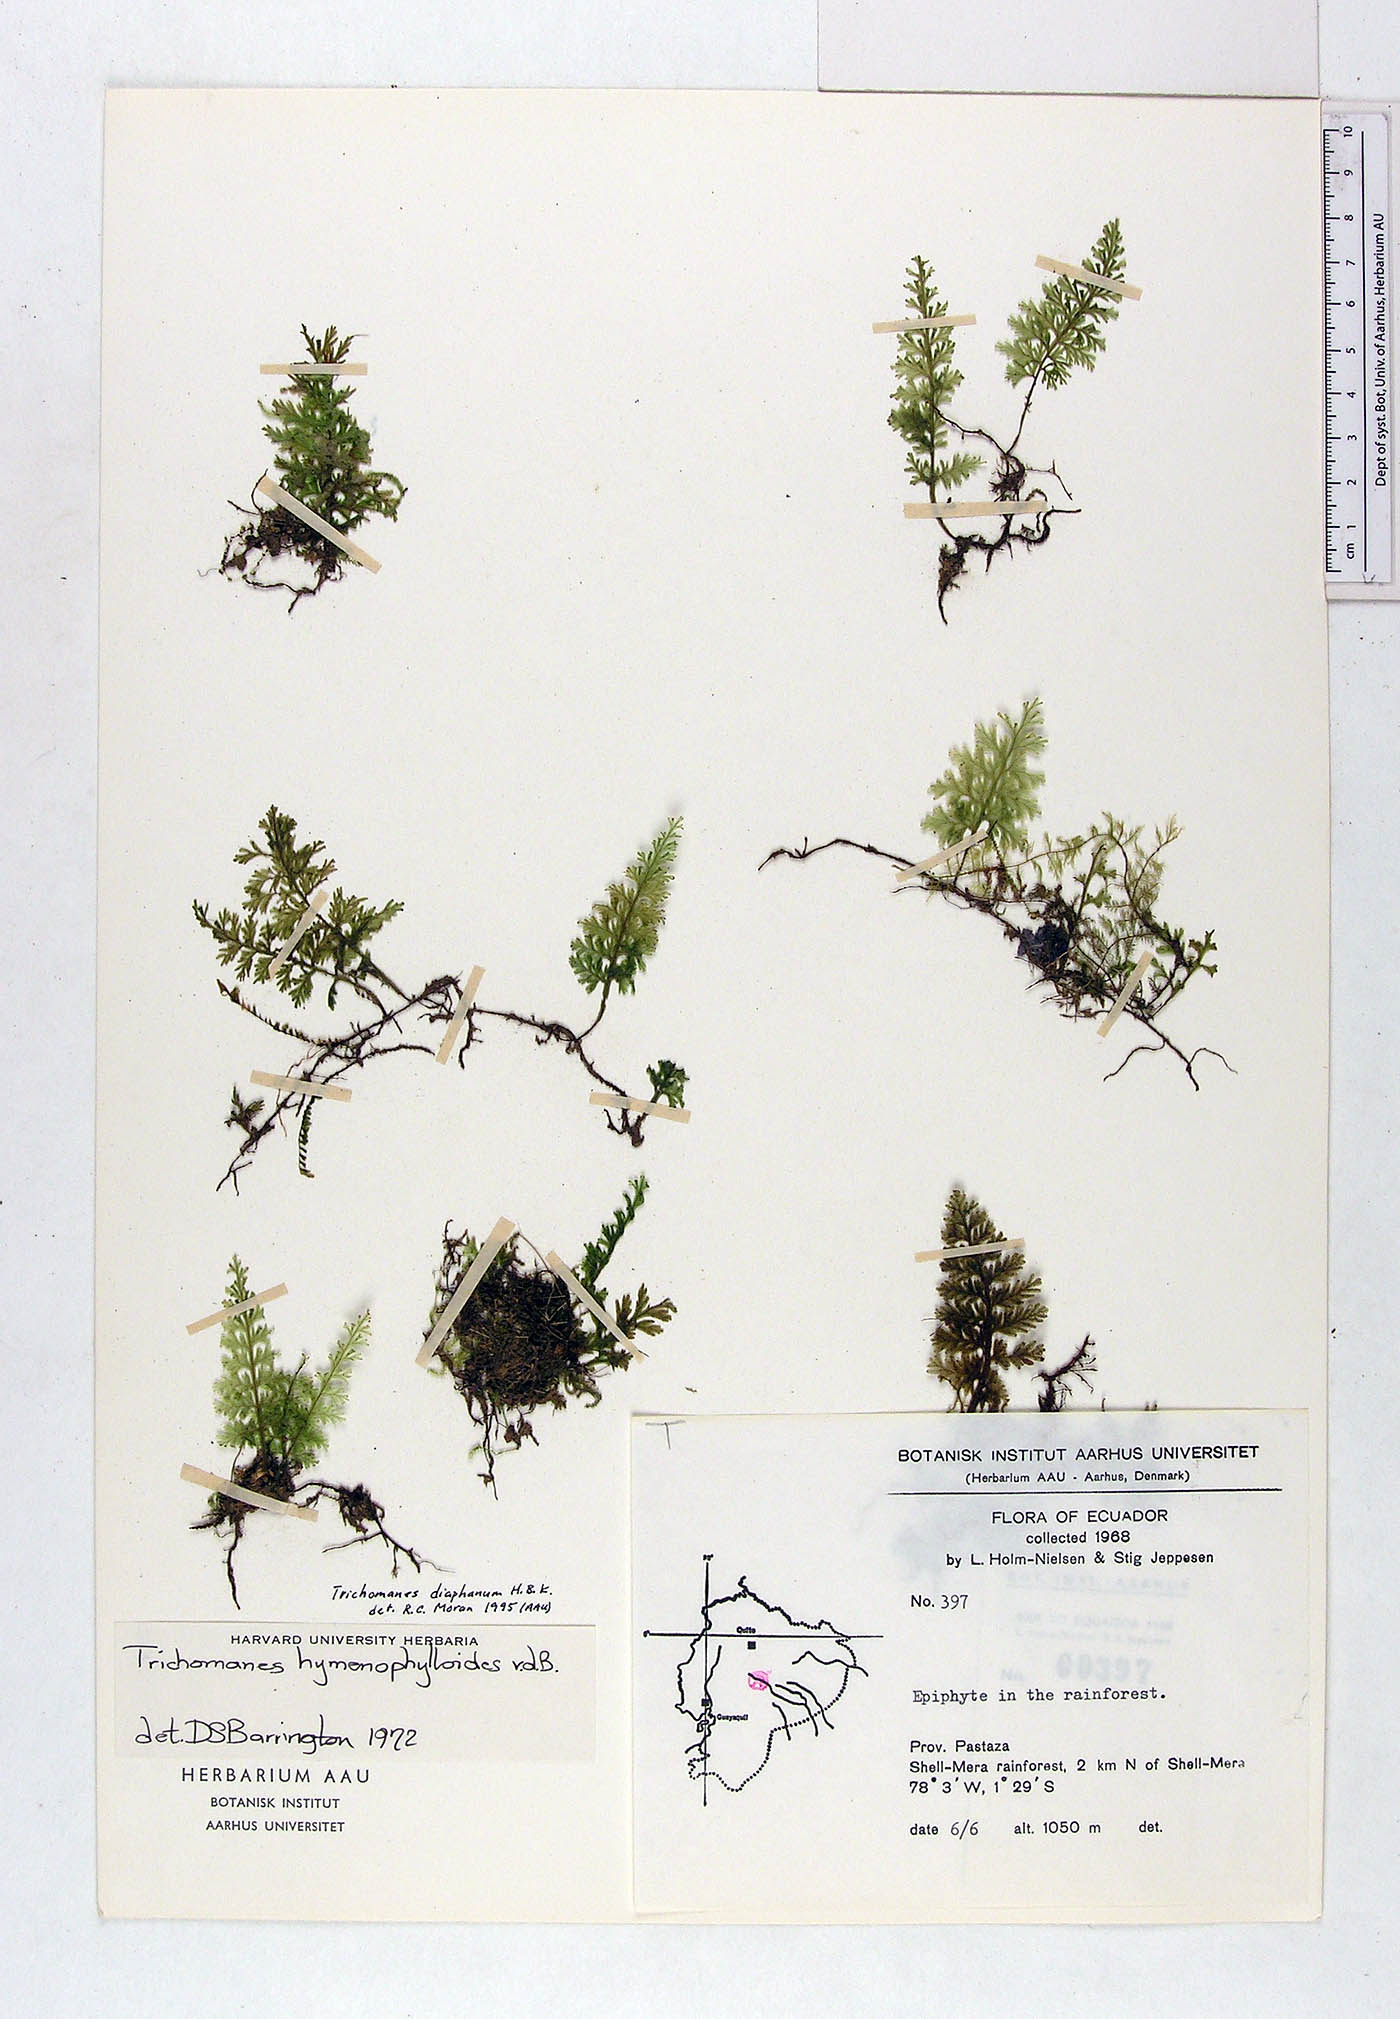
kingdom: Plantae
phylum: Tracheophyta
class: Polypodiopsida
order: Hymenophyllales
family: Hymenophyllaceae
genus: Polyphlebium
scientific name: Polyphlebium hymenophylloides
